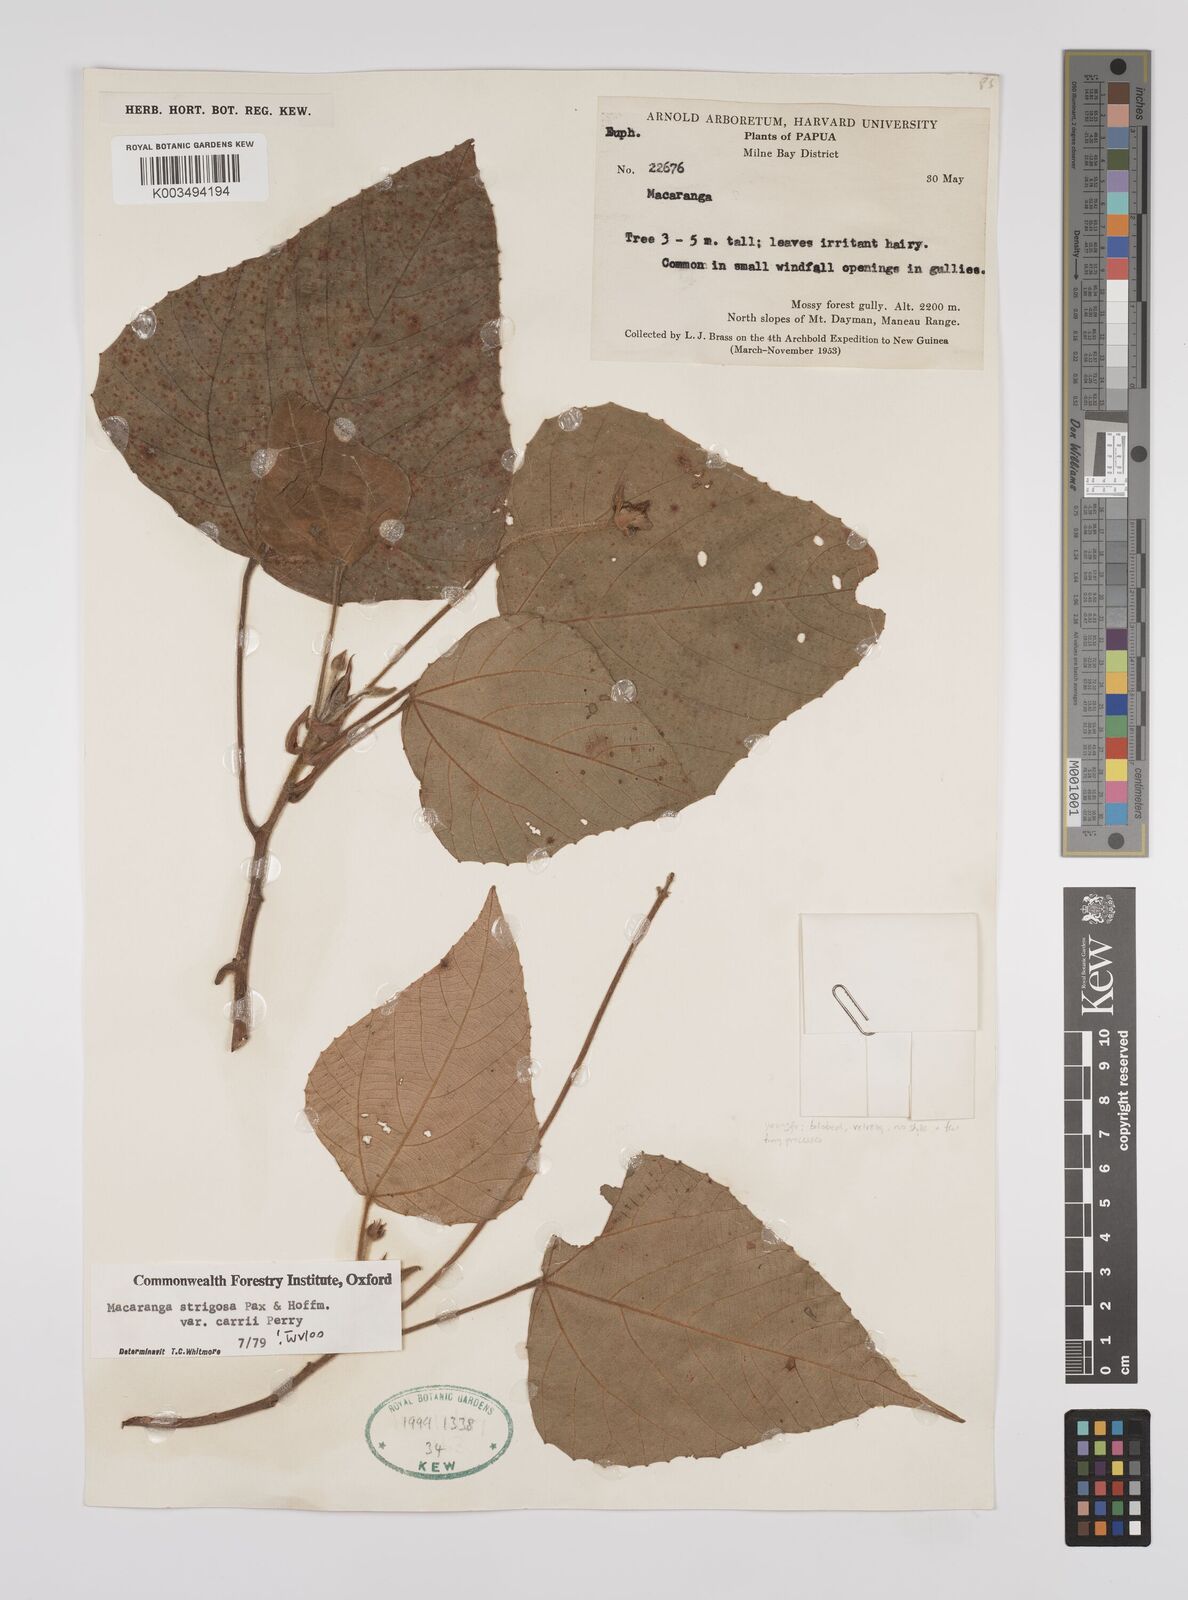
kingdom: Plantae
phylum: Tracheophyta
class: Magnoliopsida
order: Malpighiales
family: Euphorbiaceae
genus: Macaranga
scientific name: Macaranga strigosa
